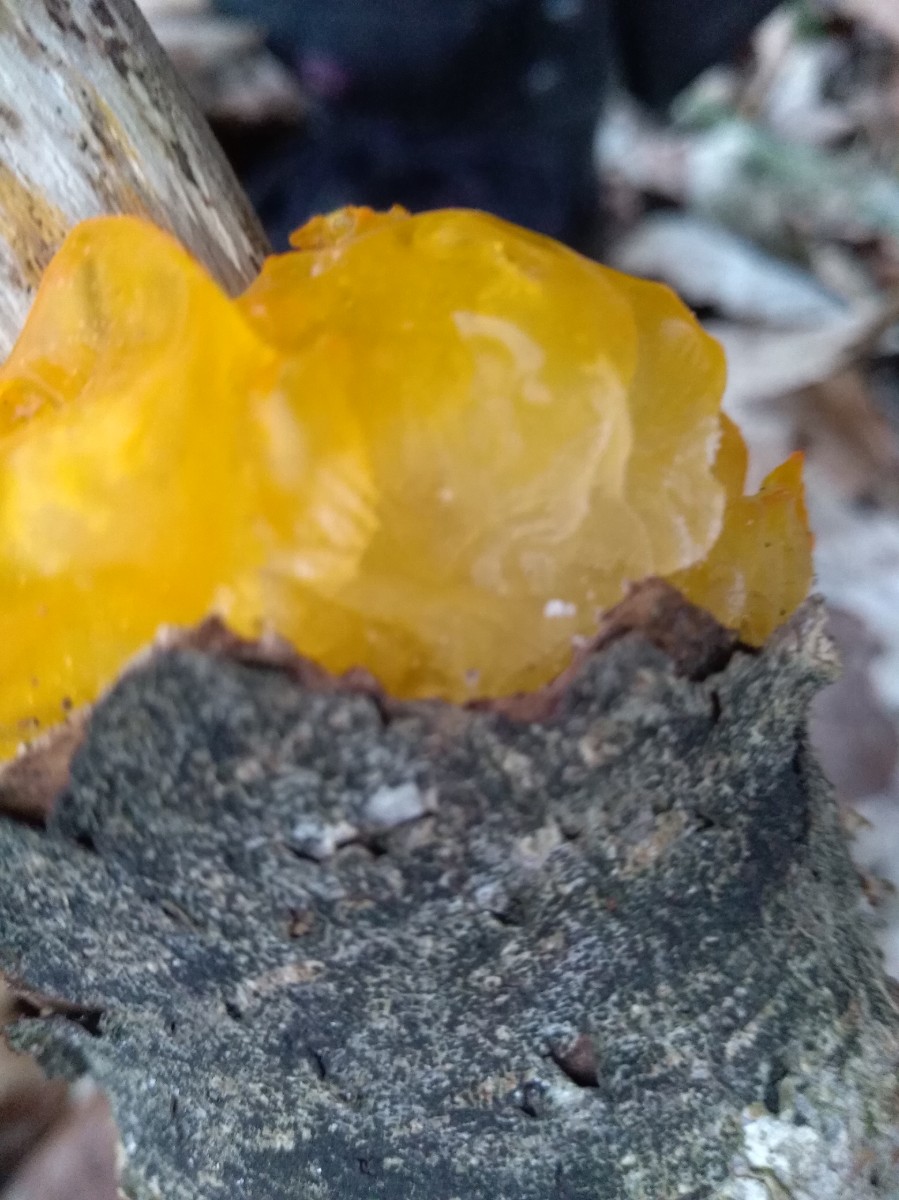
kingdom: Fungi
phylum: Basidiomycota
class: Tremellomycetes
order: Tremellales
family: Tremellaceae
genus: Tremella
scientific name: Tremella mesenterica
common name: gul bævresvamp
